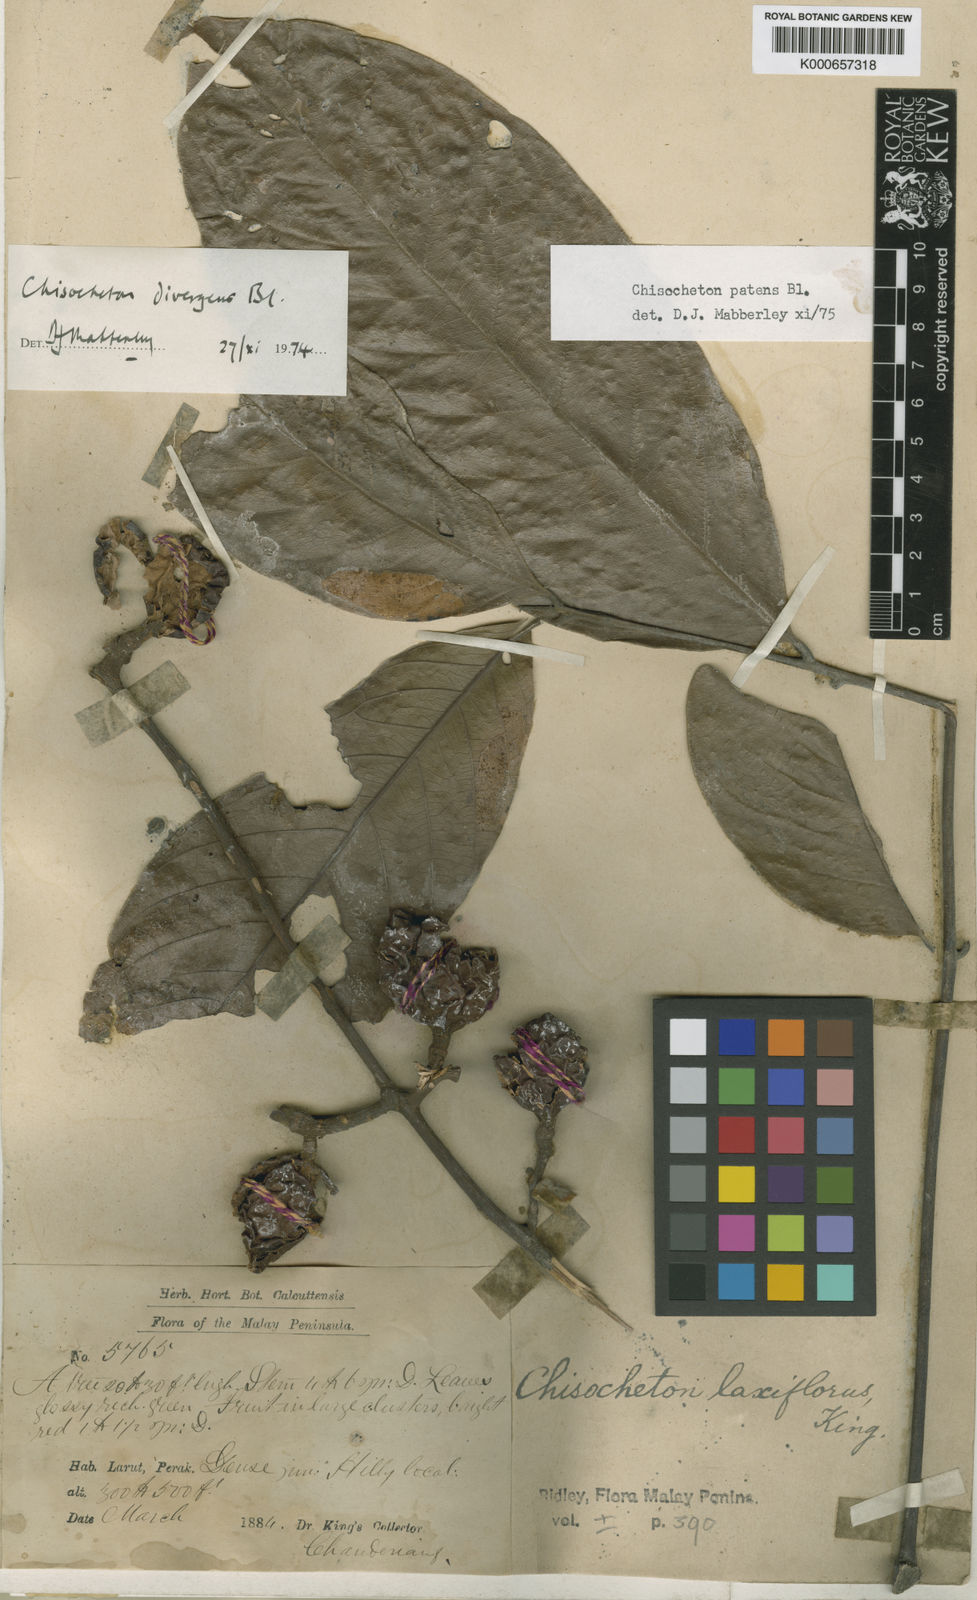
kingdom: Plantae
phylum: Tracheophyta
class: Magnoliopsida
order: Sapindales
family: Meliaceae
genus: Chisocheton
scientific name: Chisocheton patens
